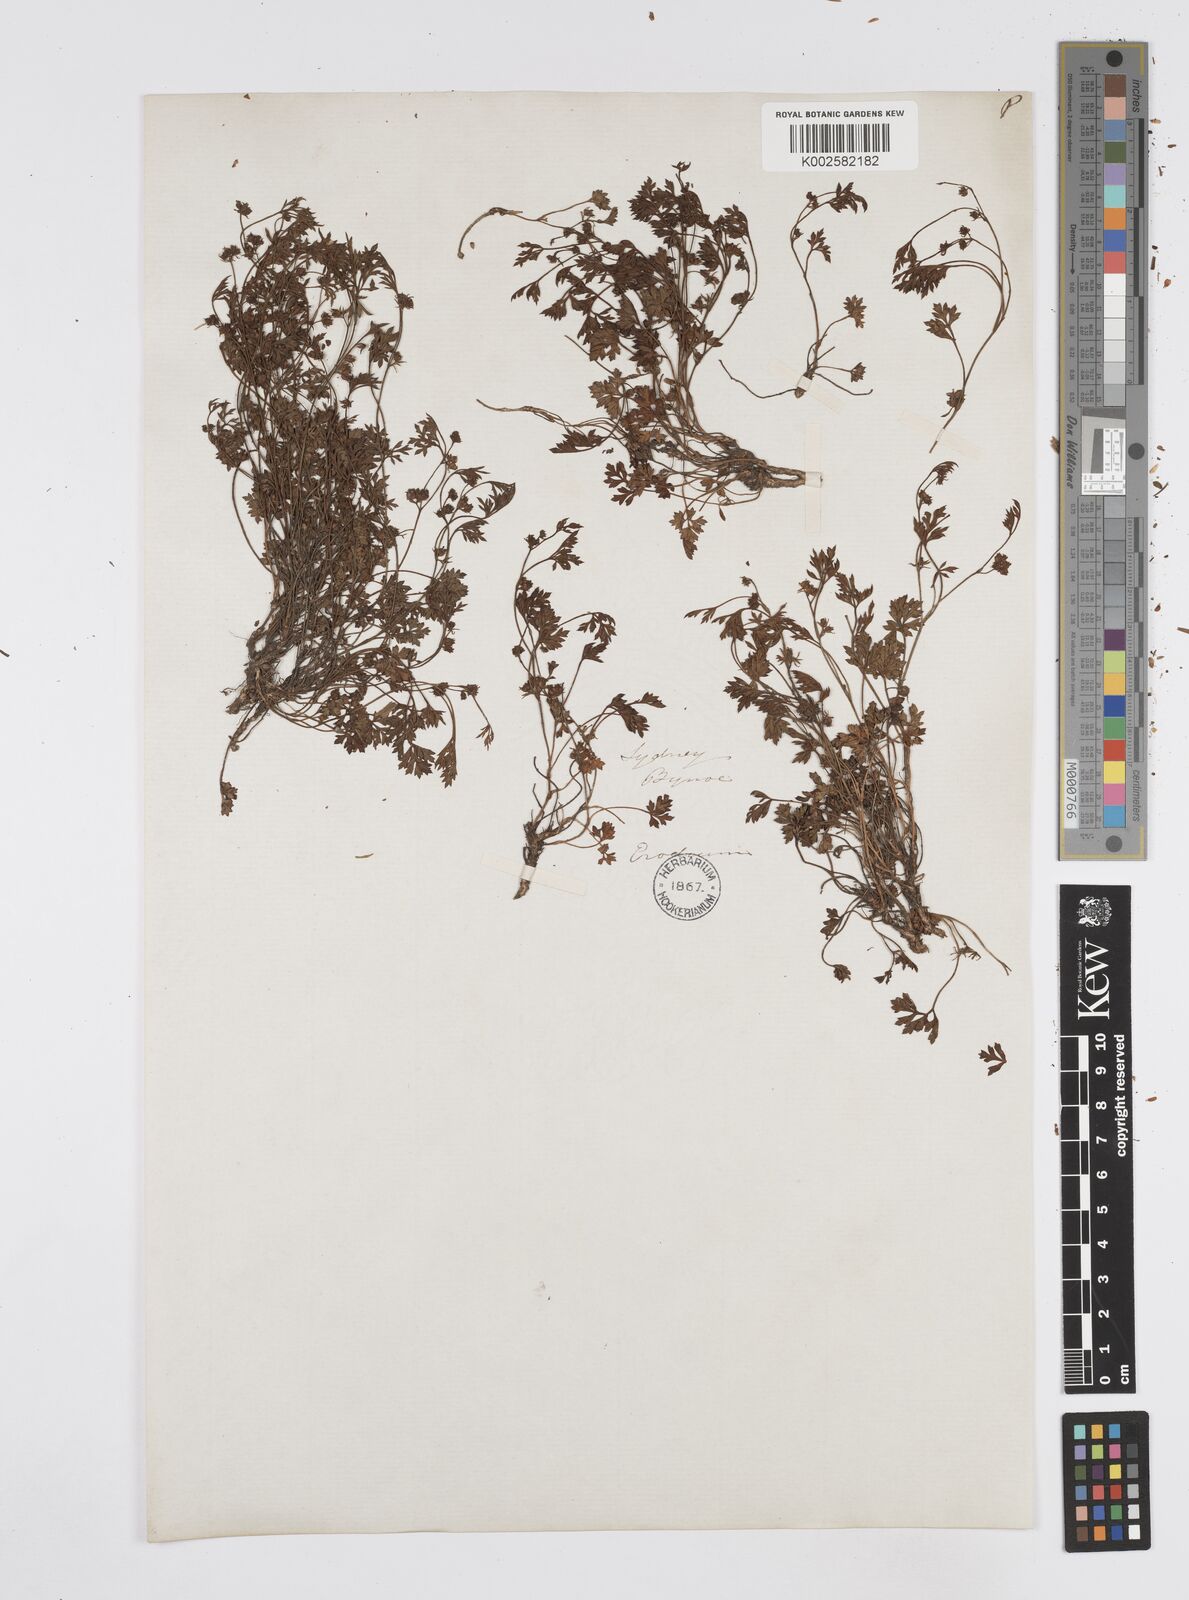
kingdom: Plantae
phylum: Tracheophyta
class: Magnoliopsida
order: Apiales
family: Apiaceae
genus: Xanthosia
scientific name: Xanthosia dissecta
